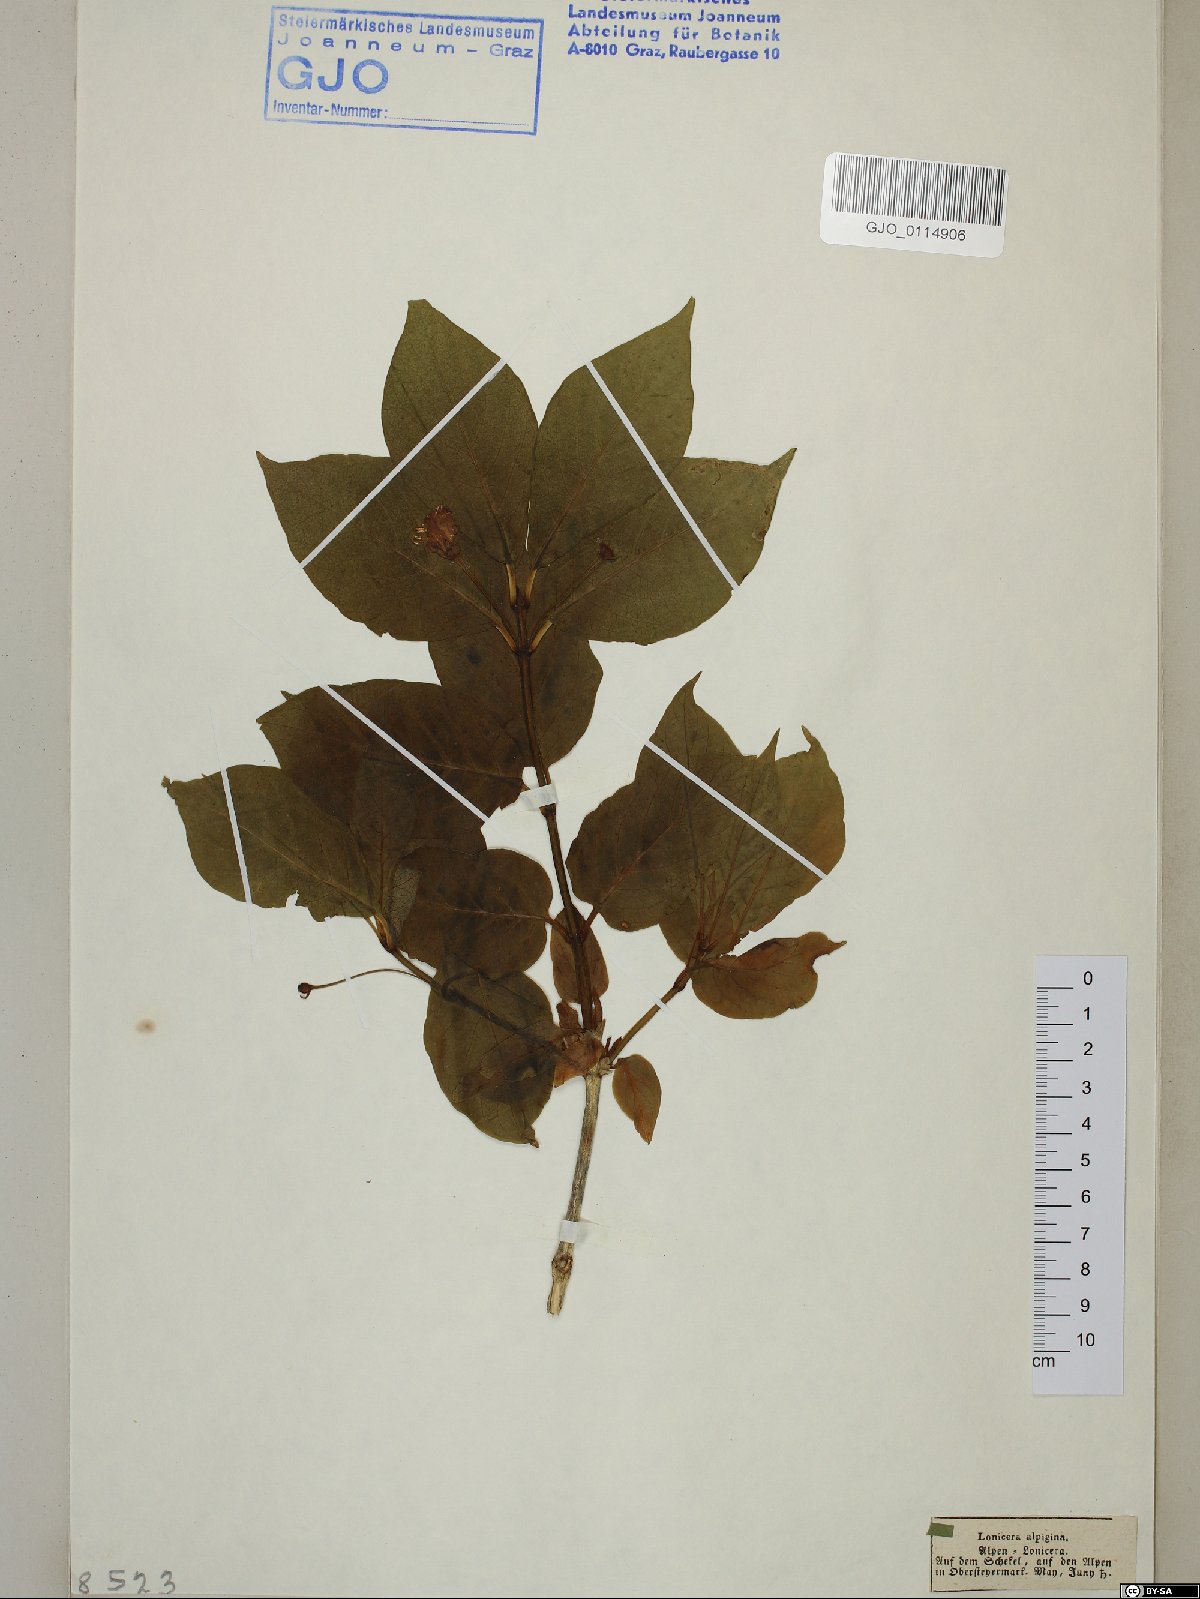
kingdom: Plantae
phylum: Tracheophyta
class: Magnoliopsida
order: Dipsacales
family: Caprifoliaceae
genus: Lonicera
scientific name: Lonicera alpigena
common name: Alpine honeysuckle
